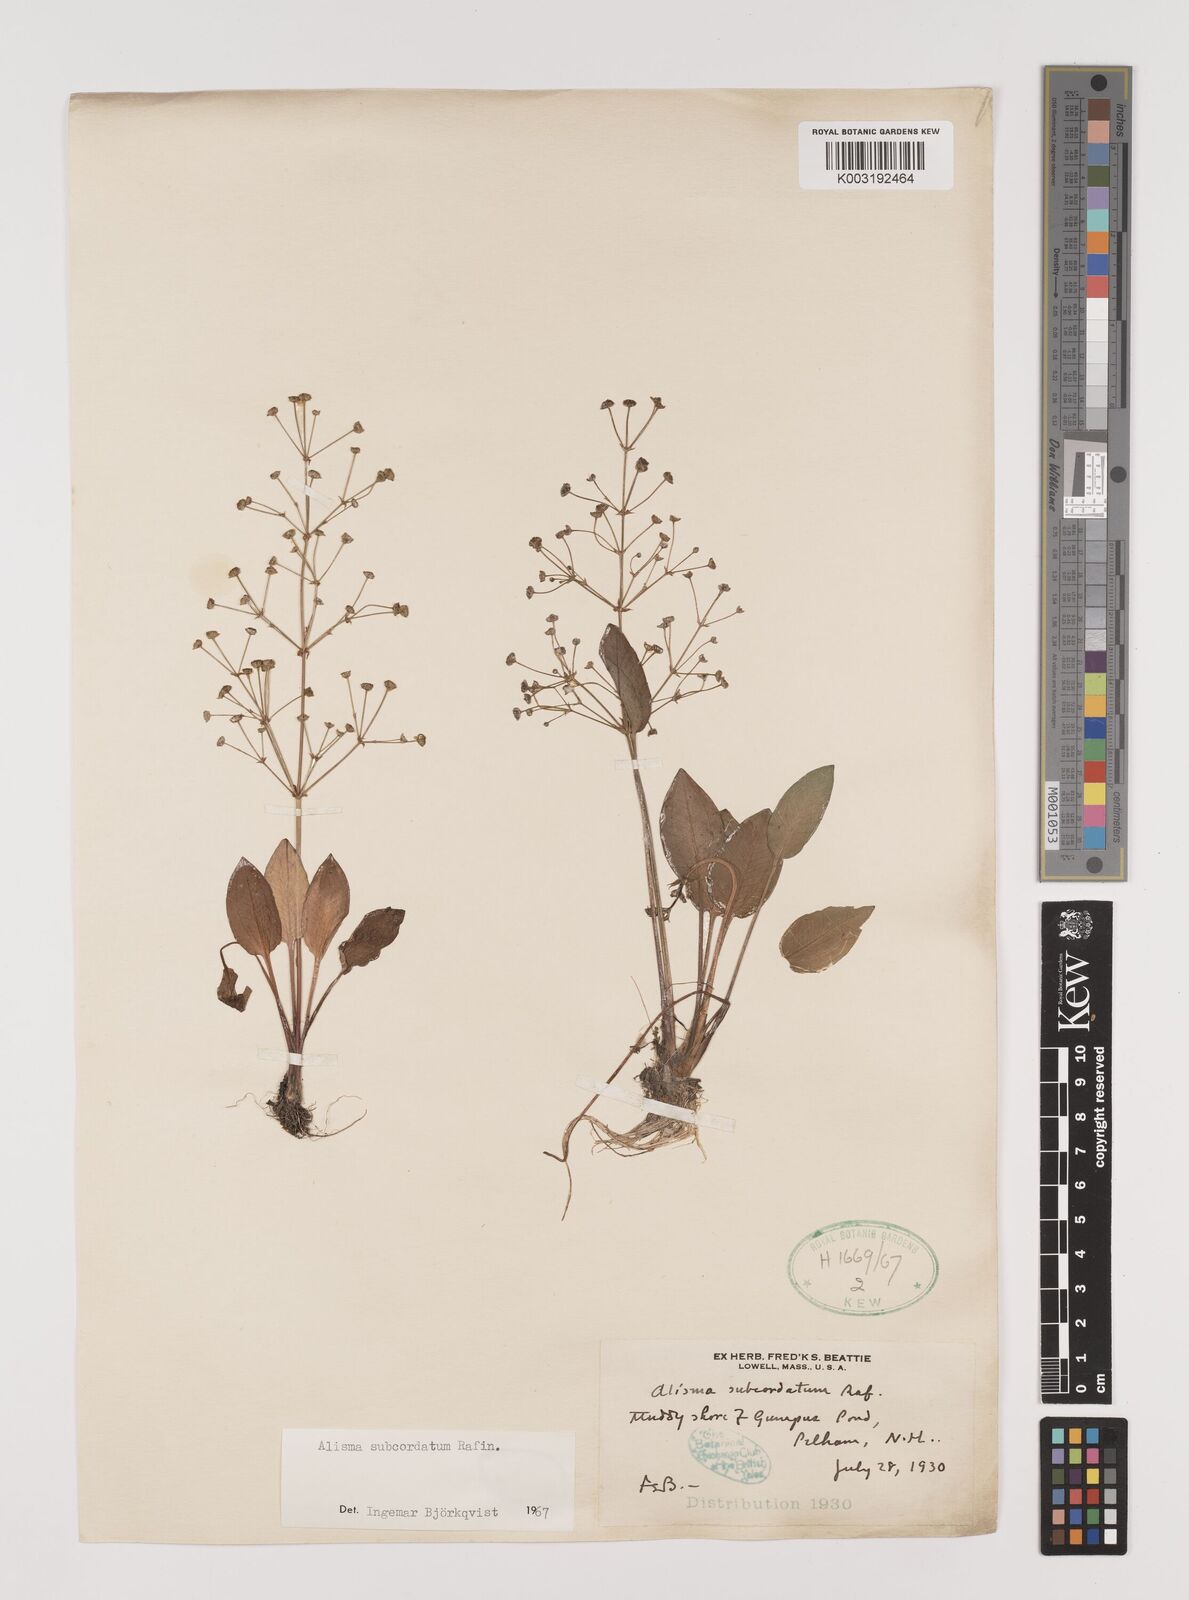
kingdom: Plantae
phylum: Tracheophyta
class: Liliopsida
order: Alismatales
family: Alismataceae
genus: Alisma
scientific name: Alisma subcordatum
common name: Southern water-plantain
